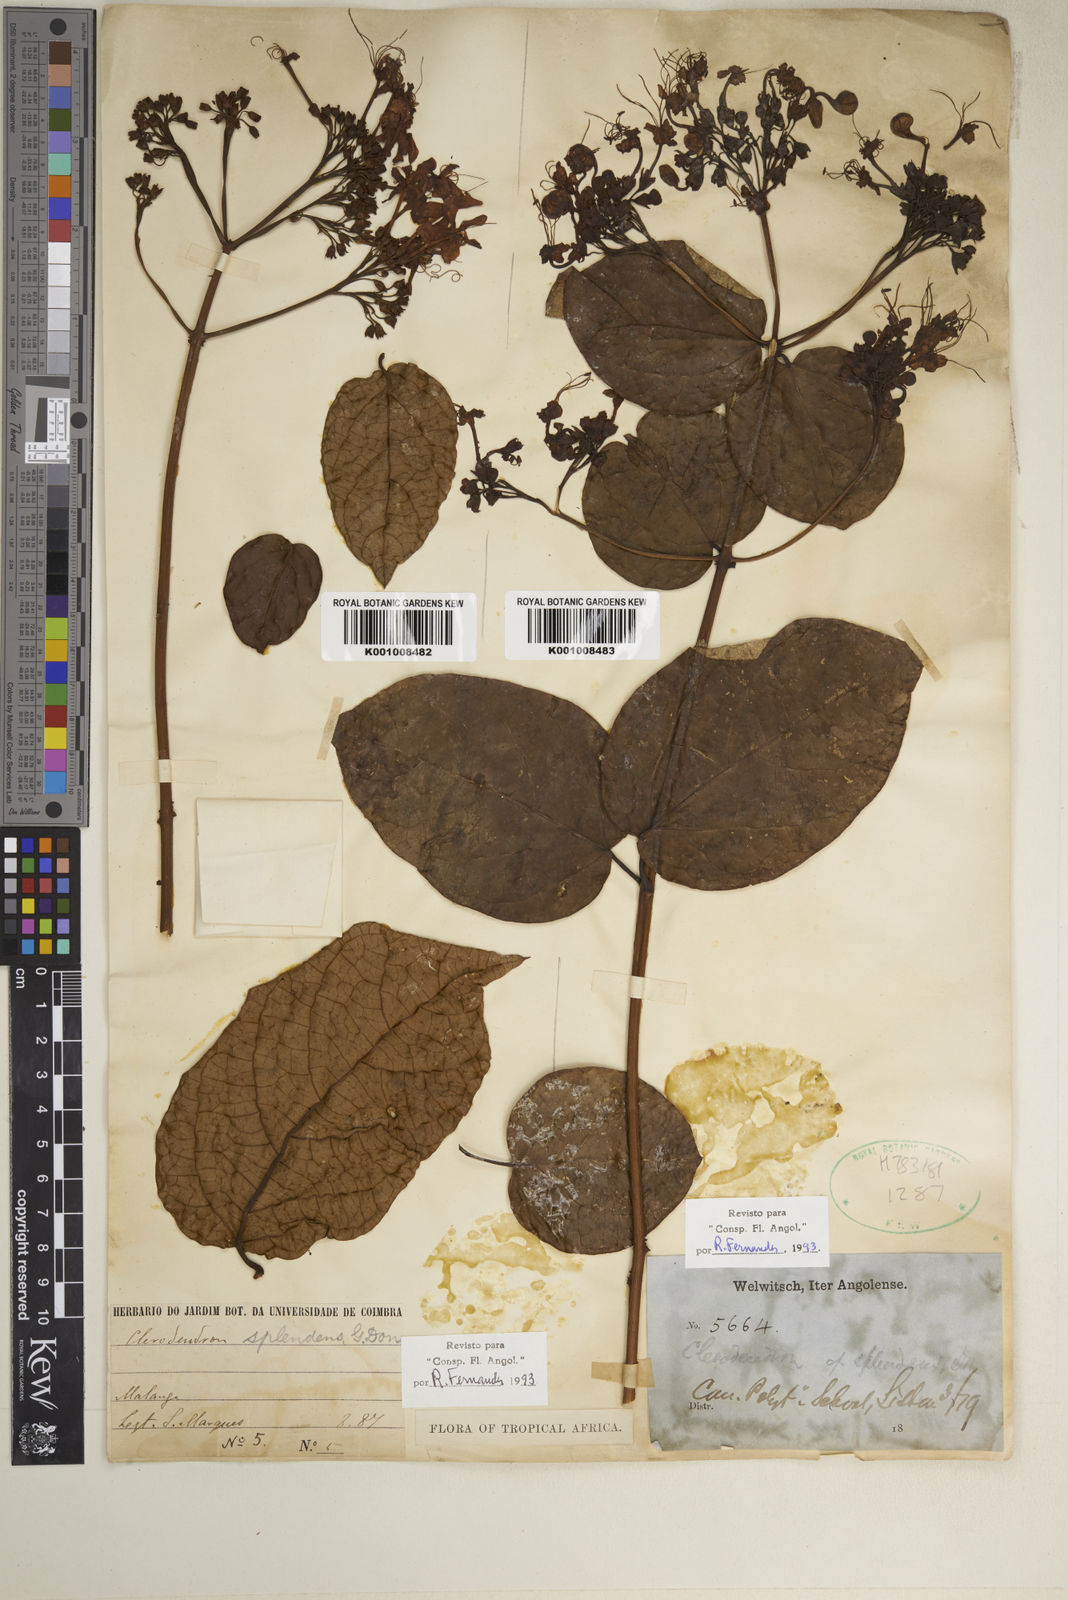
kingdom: Plantae
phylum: Tracheophyta
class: Magnoliopsida
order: Lamiales
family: Lamiaceae
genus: Clerodendrum
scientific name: Clerodendrum splendens
